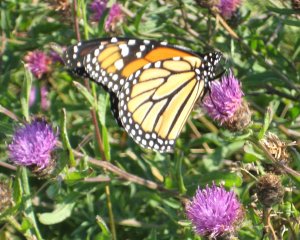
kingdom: Animalia
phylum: Arthropoda
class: Insecta
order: Lepidoptera
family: Nymphalidae
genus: Danaus
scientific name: Danaus plexippus
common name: Monarch
